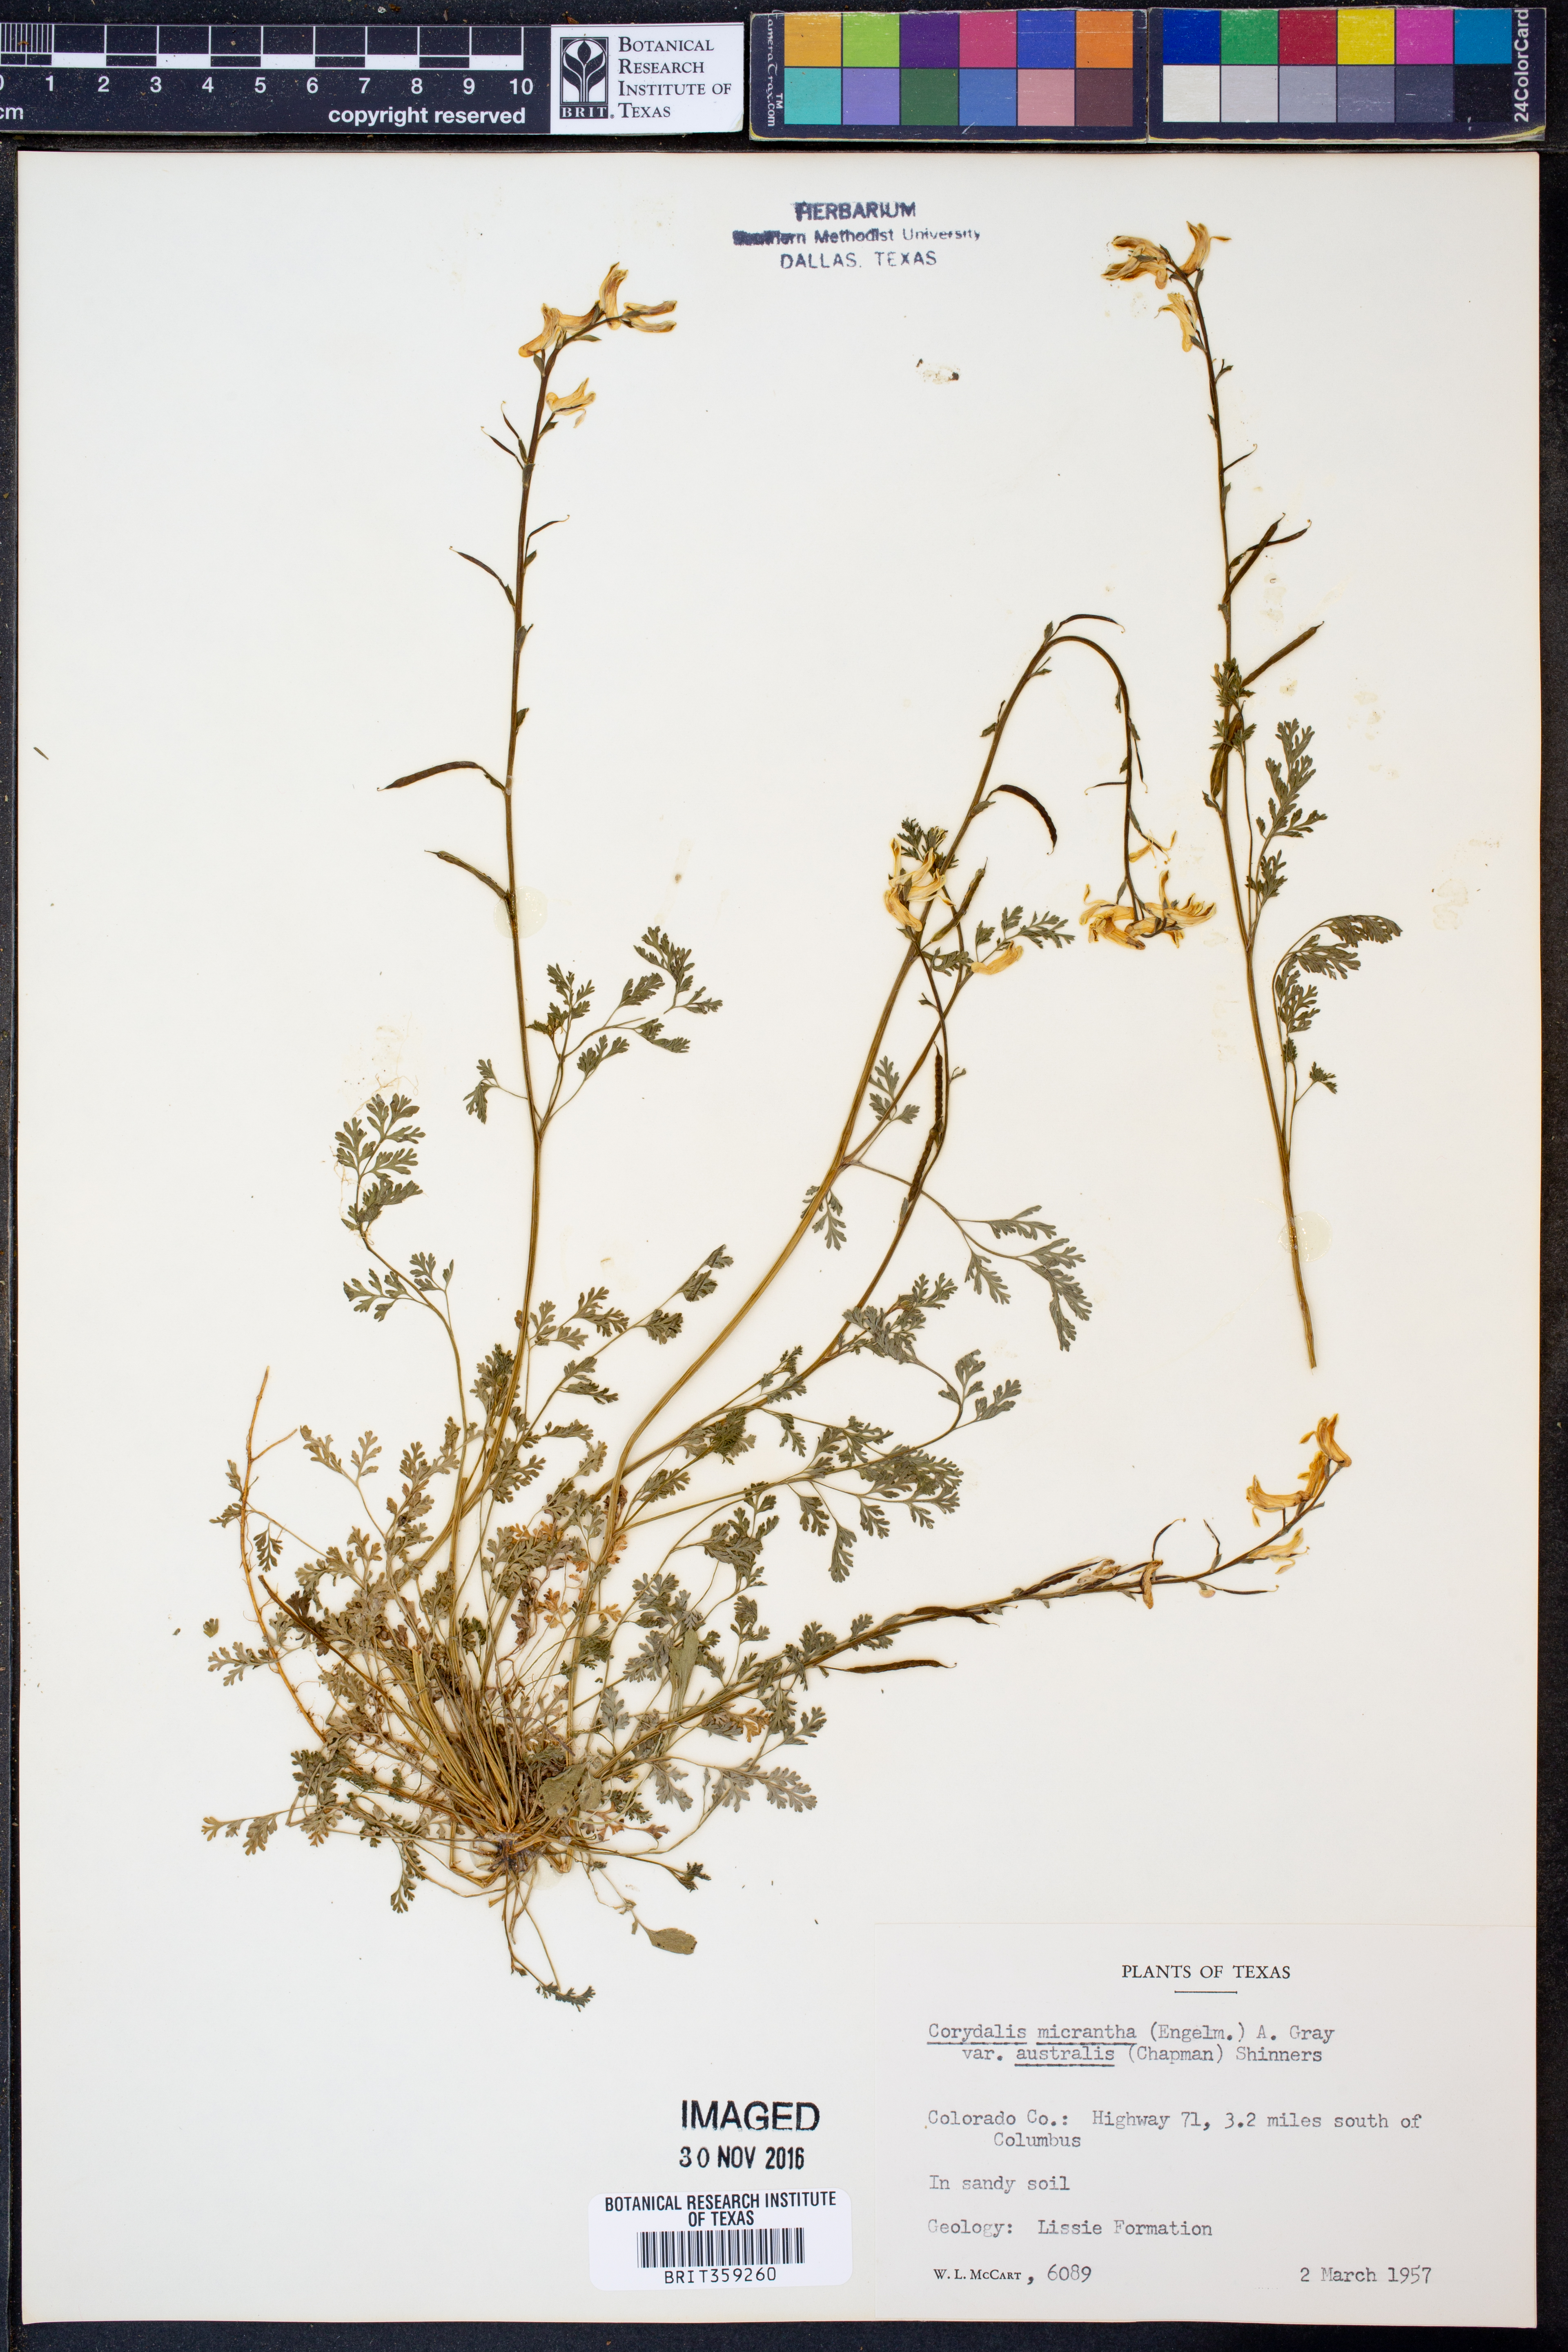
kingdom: Plantae
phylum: Tracheophyta
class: Magnoliopsida
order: Ranunculales
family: Papaveraceae
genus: Corydalis
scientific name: Corydalis micrantha
